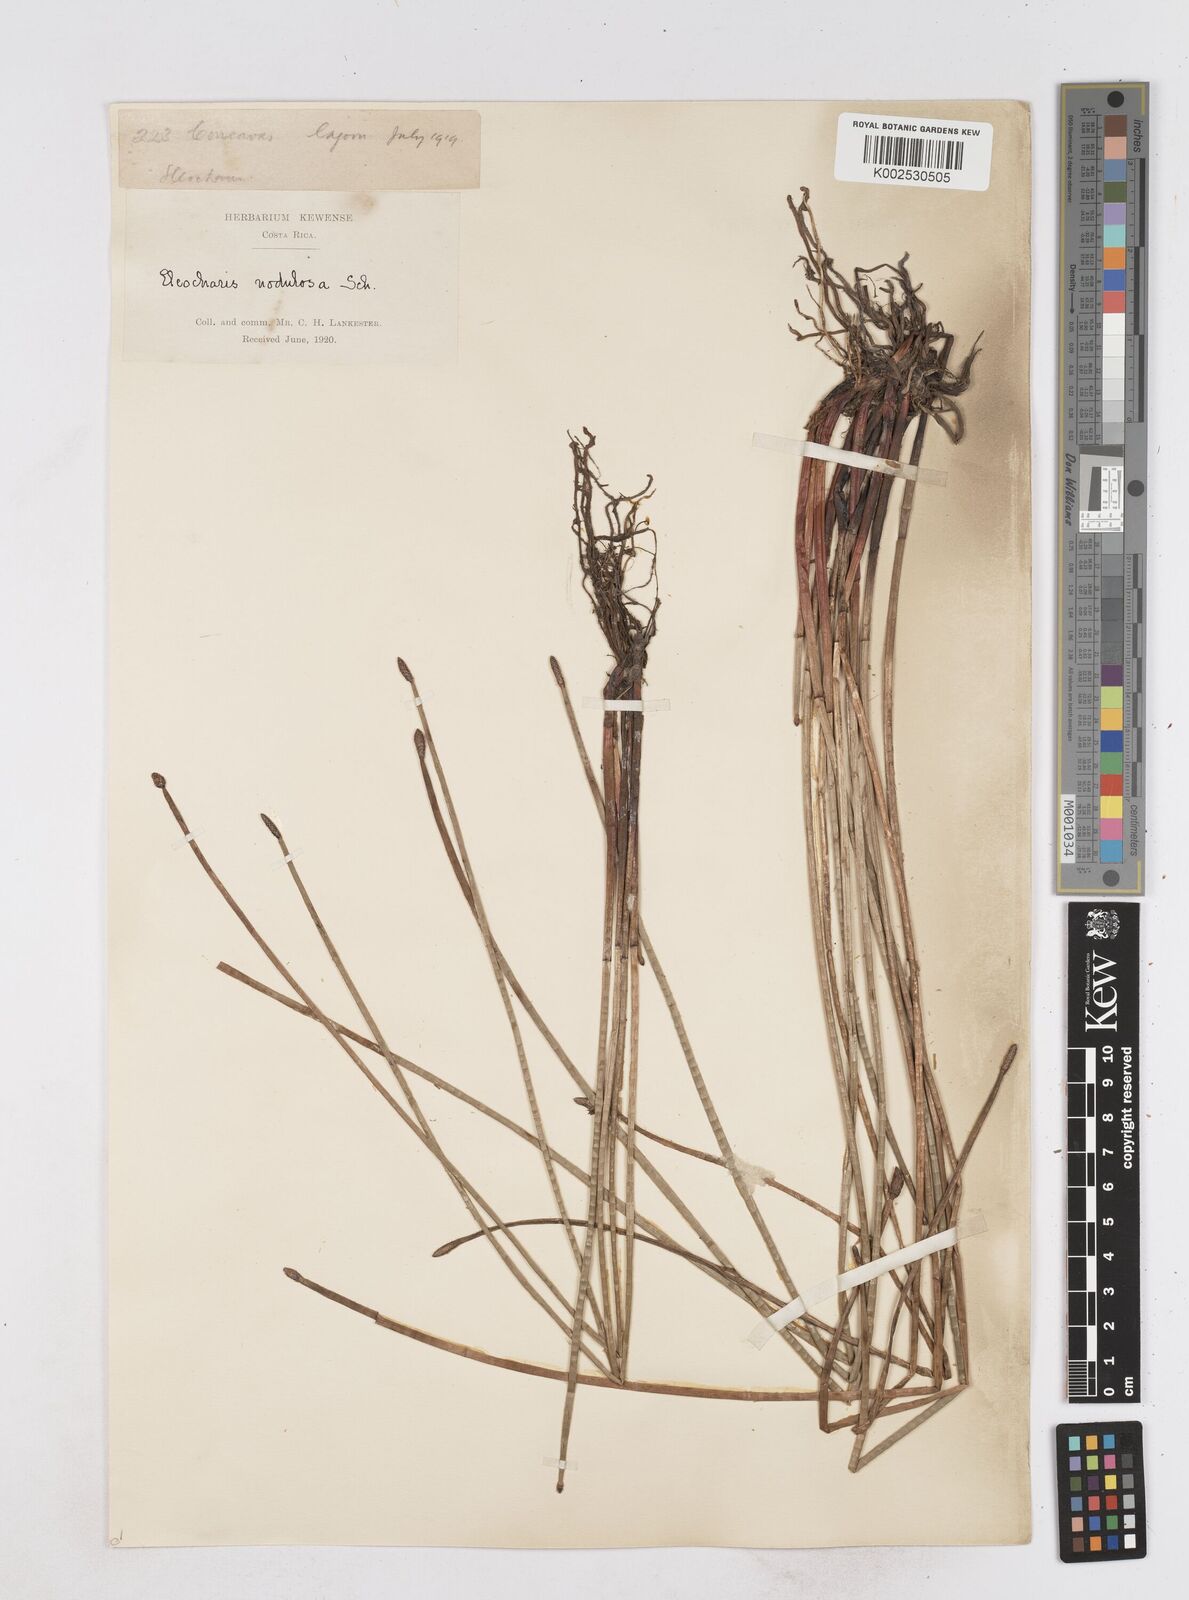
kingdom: Plantae
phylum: Tracheophyta
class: Liliopsida
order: Poales
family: Cyperaceae
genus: Eleocharis
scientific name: Eleocharis montana
